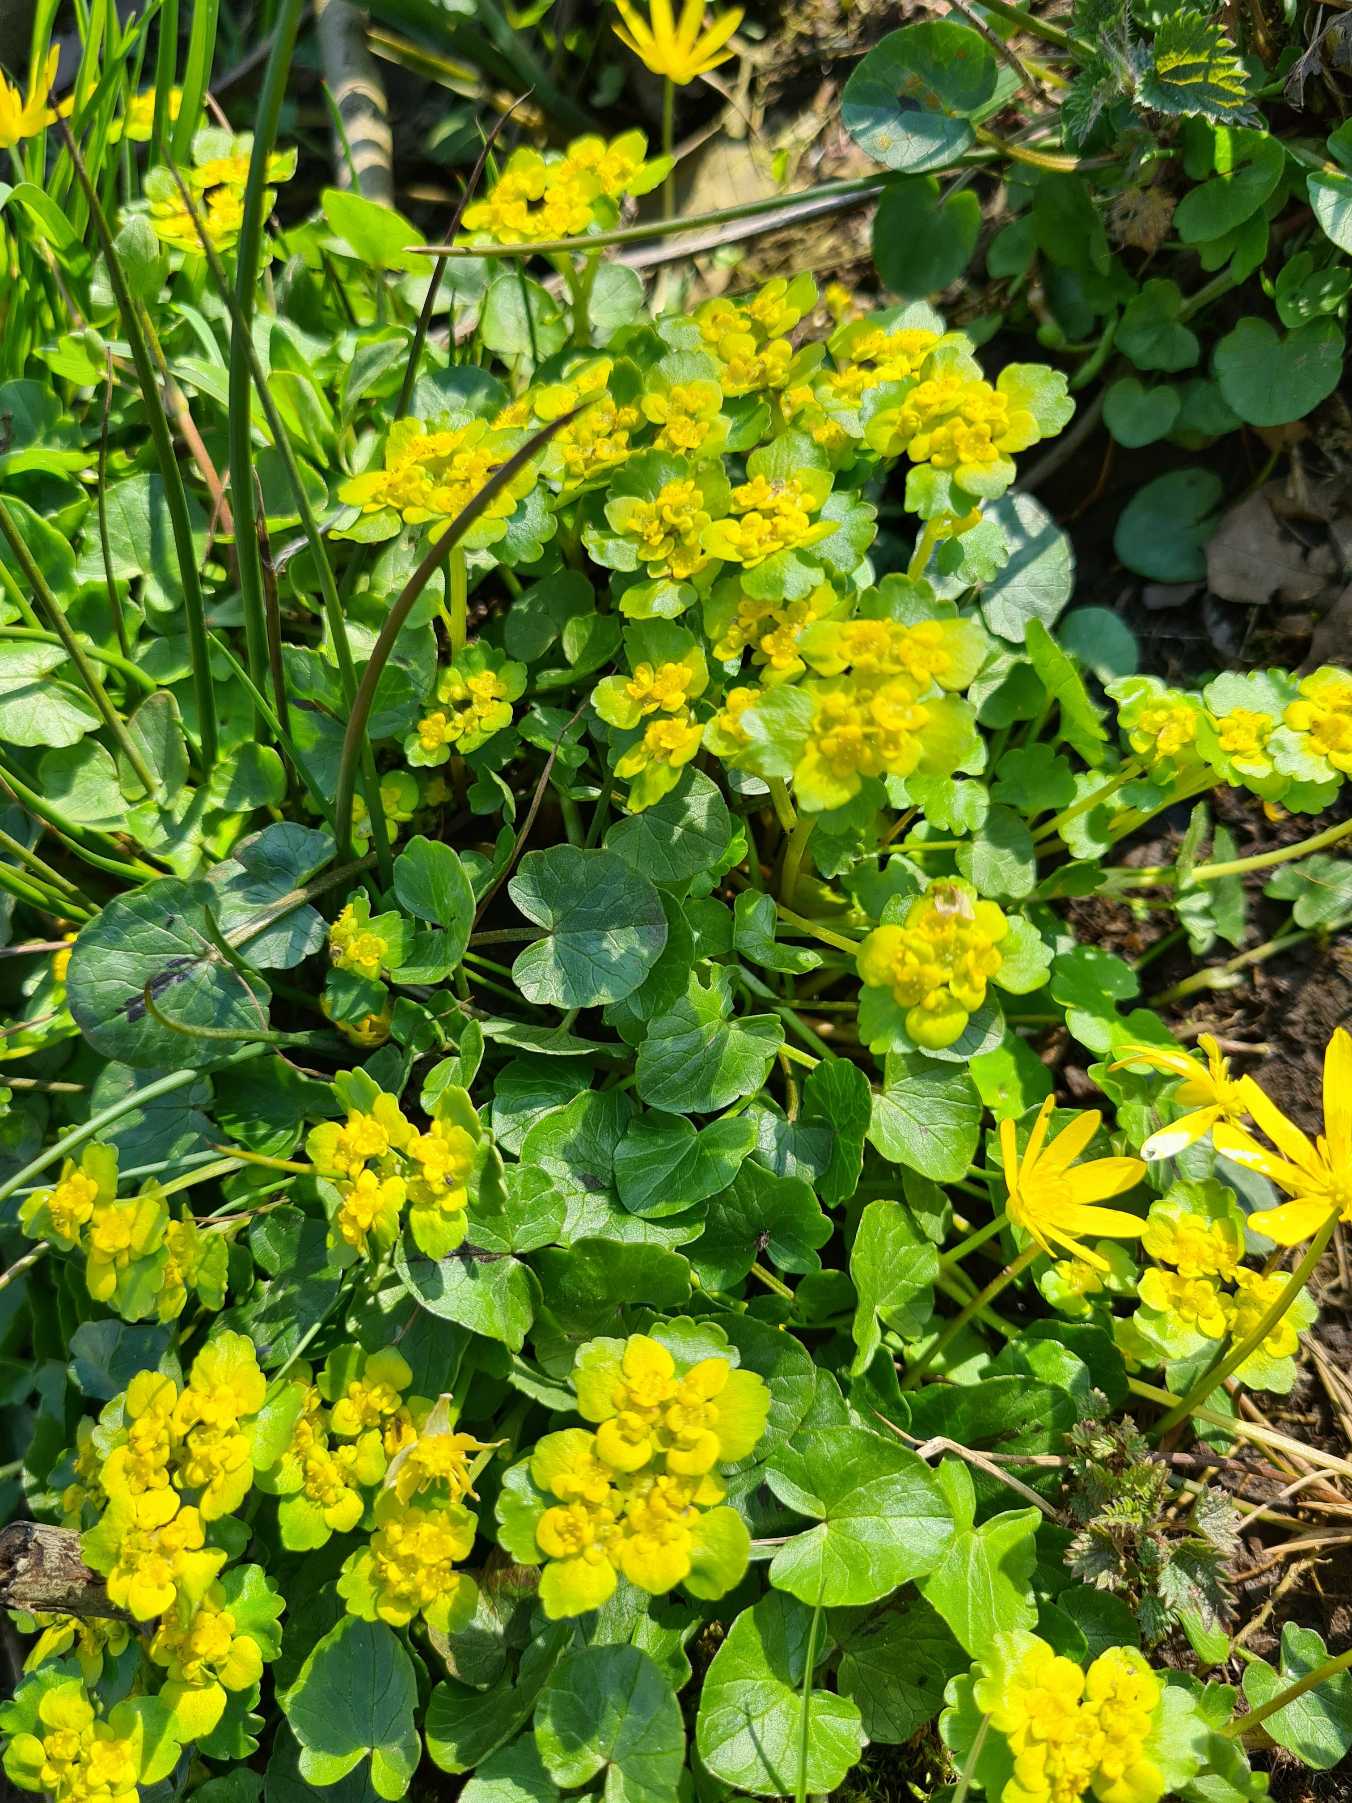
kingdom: Plantae
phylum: Tracheophyta
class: Magnoliopsida
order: Saxifragales
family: Saxifragaceae
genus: Chrysosplenium
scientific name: Chrysosplenium alternifolium
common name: Almindelig milturt
